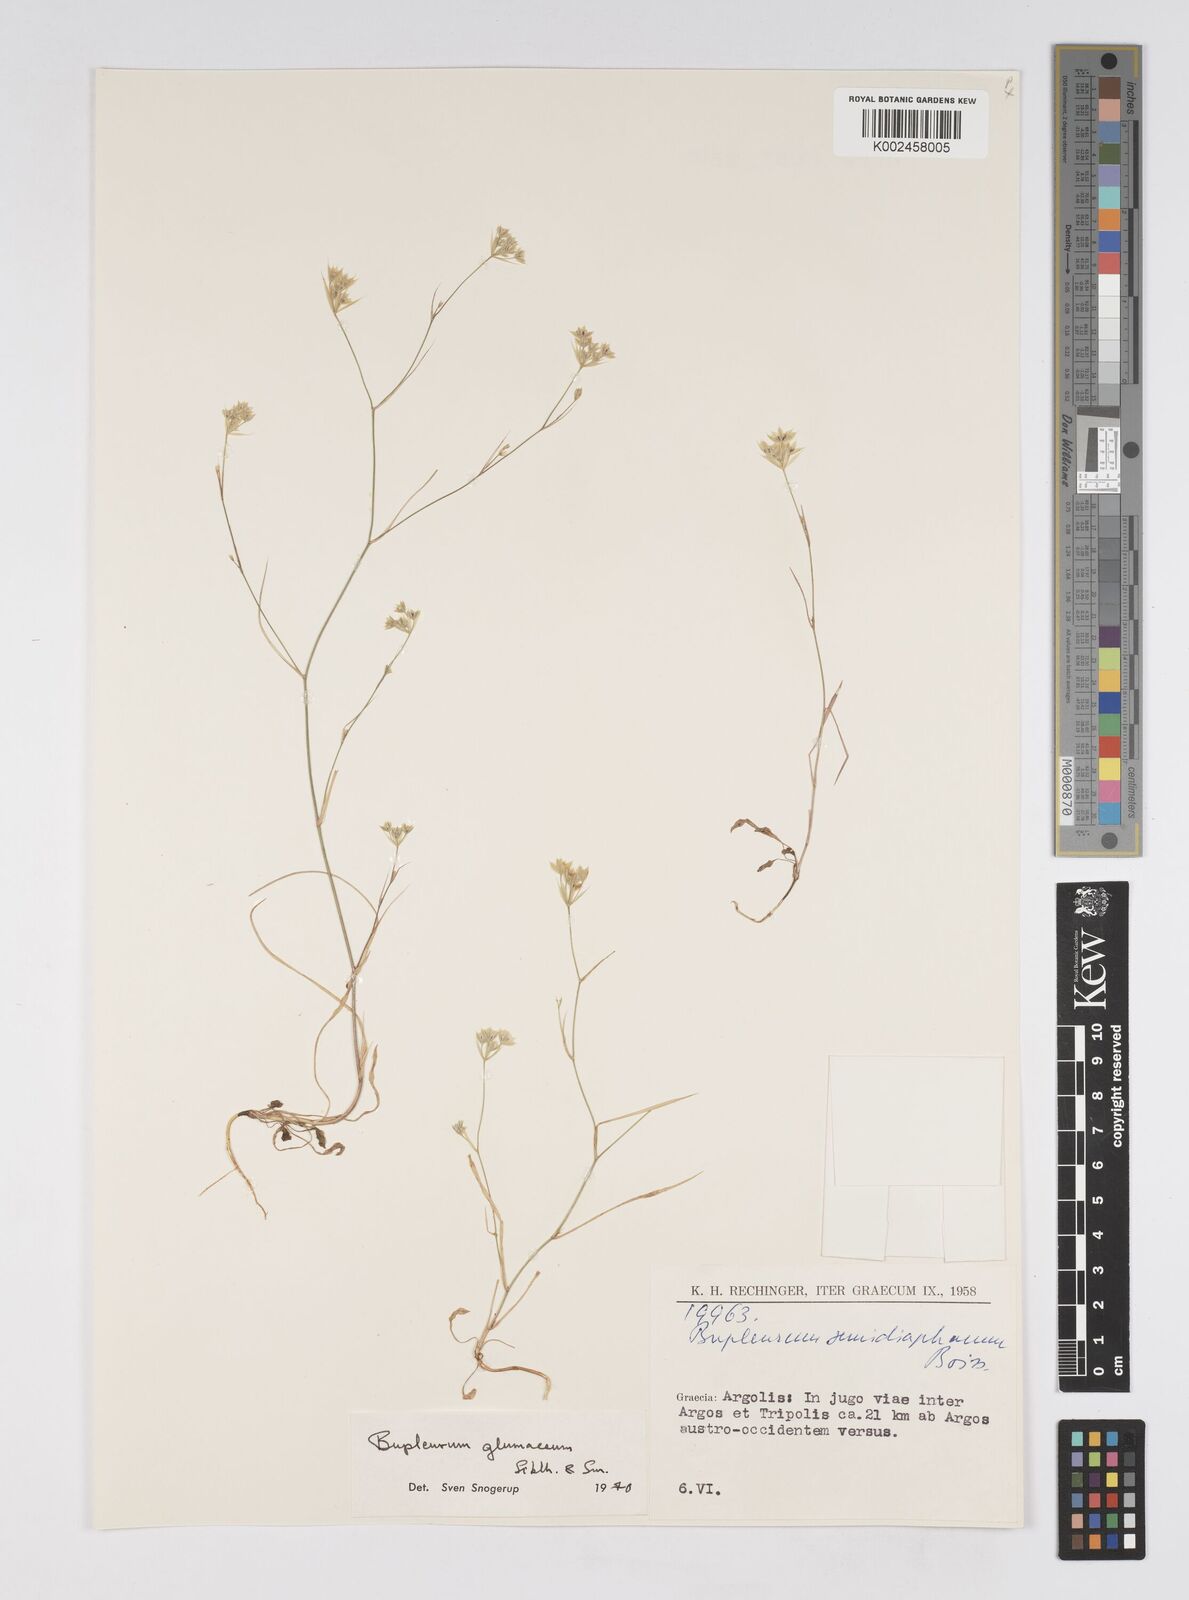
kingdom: Plantae
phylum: Tracheophyta
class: Magnoliopsida
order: Apiales
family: Apiaceae
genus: Bupleurum
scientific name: Bupleurum glumaceum
